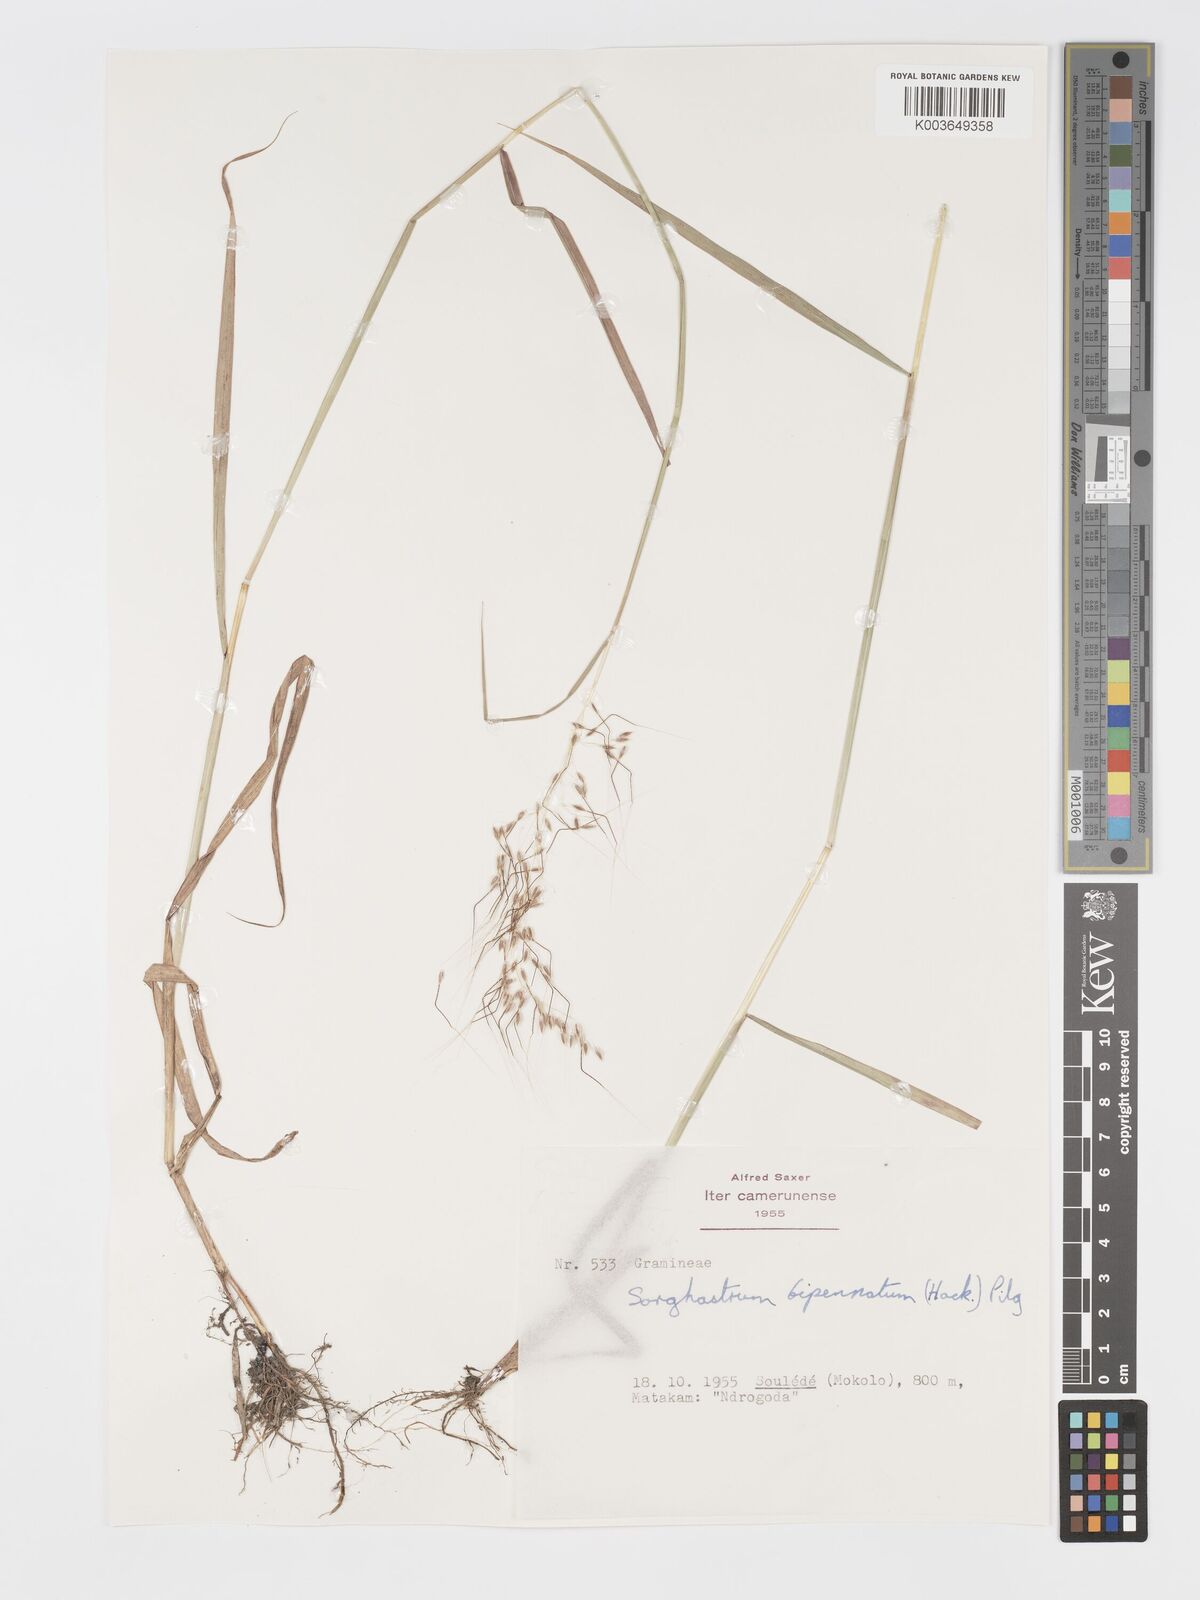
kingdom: Plantae
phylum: Tracheophyta
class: Liliopsida
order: Poales
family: Poaceae
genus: Sorghastrum
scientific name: Sorghastrum incompletum
